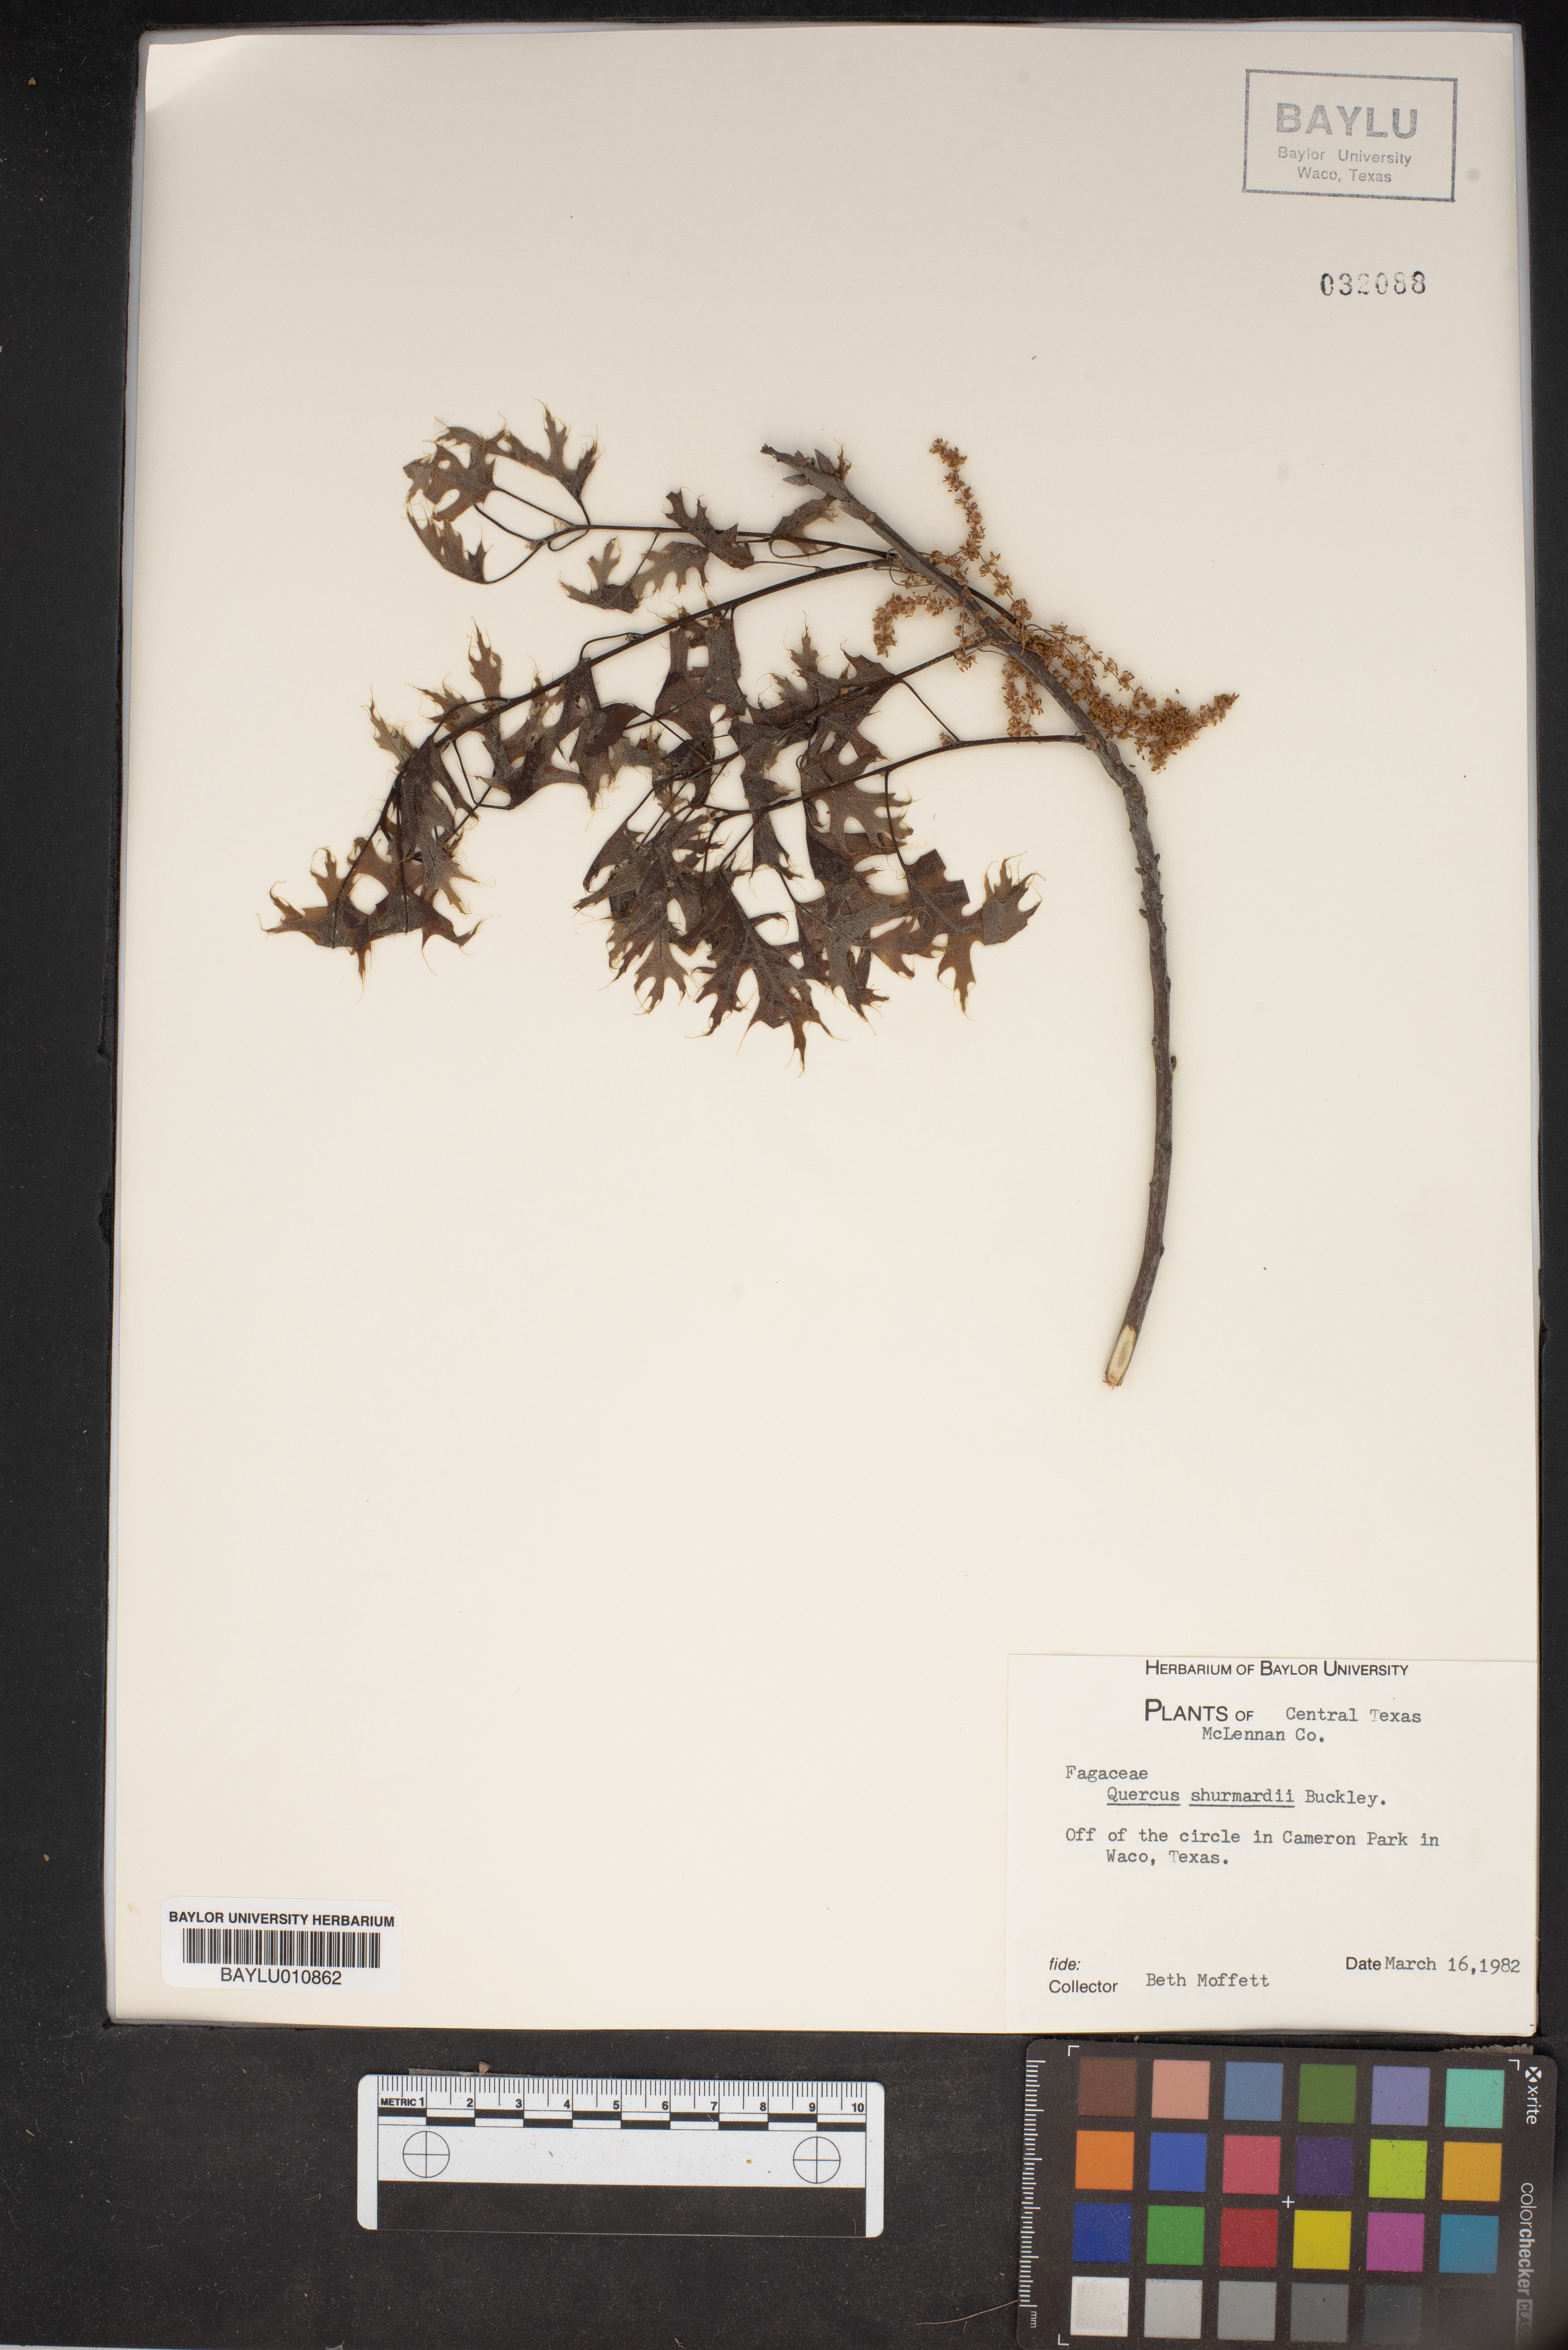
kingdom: Plantae
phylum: Tracheophyta
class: Magnoliopsida
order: Fagales
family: Fagaceae
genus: Quercus
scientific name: Quercus shumardii
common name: Shumard oak
